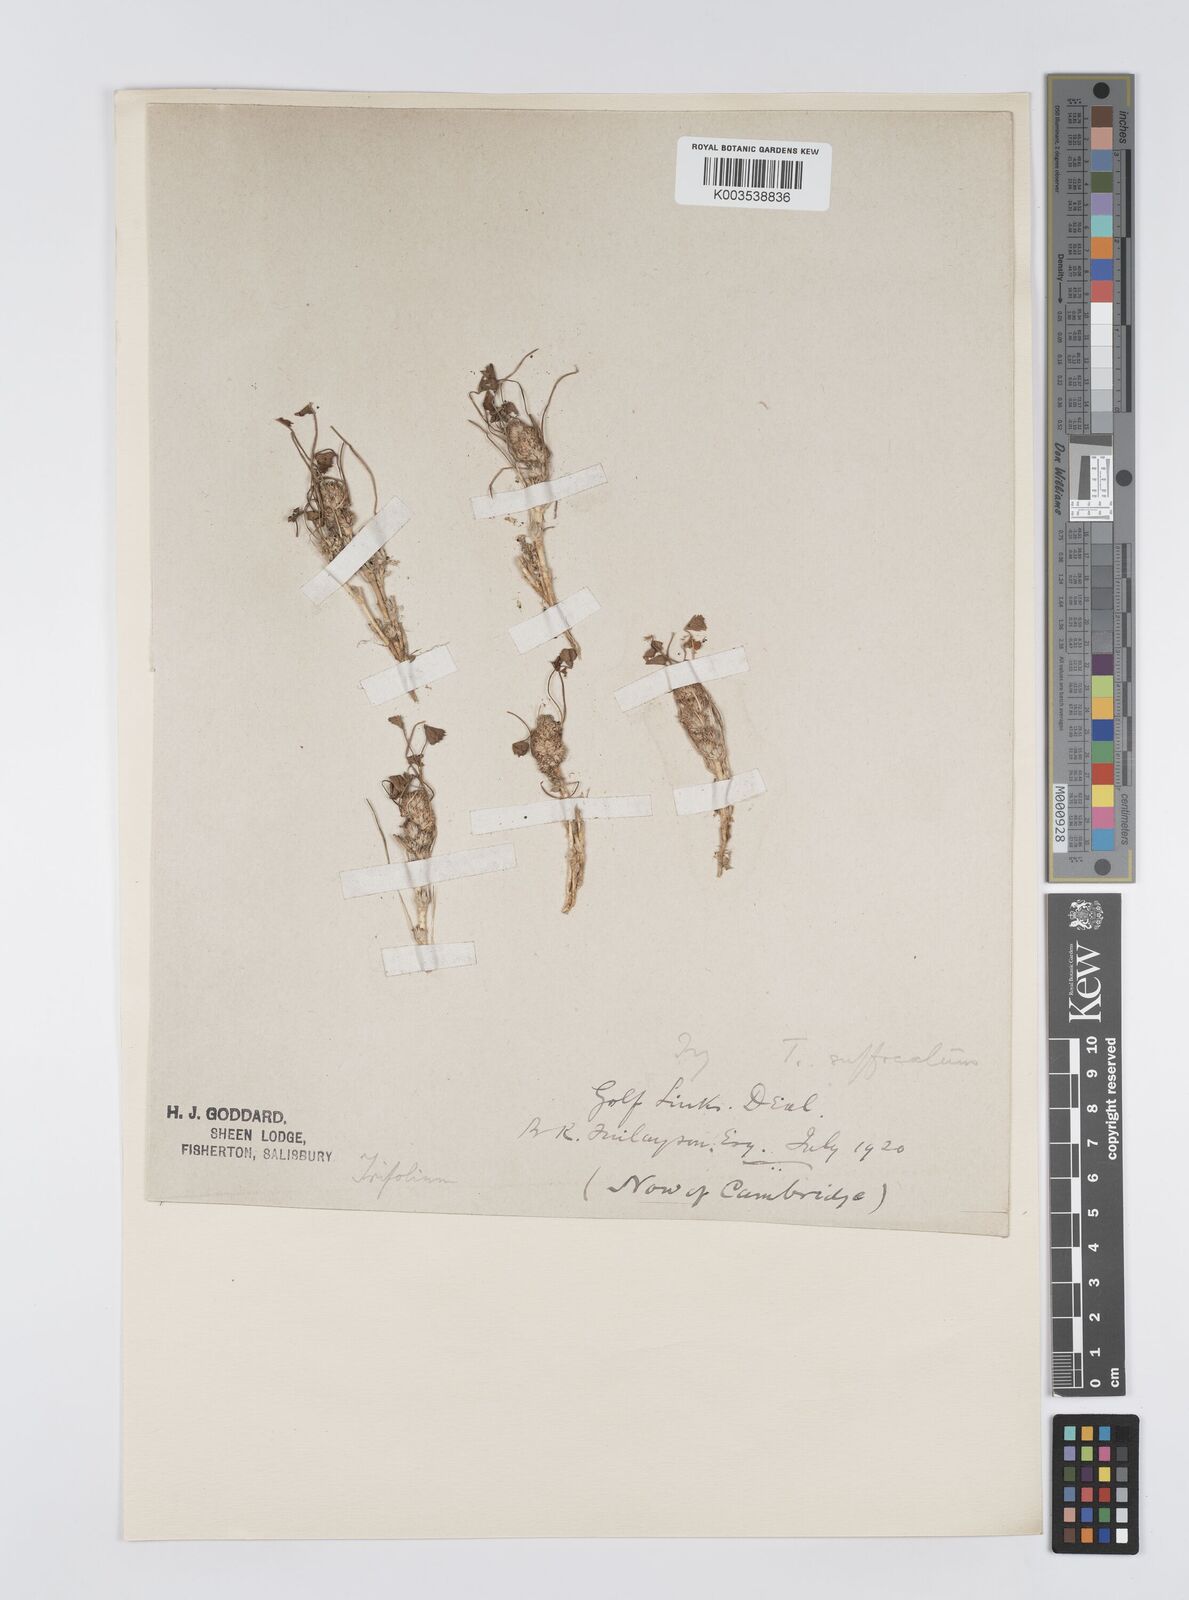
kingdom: Plantae
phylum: Tracheophyta
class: Magnoliopsida
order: Fabales
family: Fabaceae
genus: Trifolium
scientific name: Trifolium suffocatum
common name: Suffocated clover
